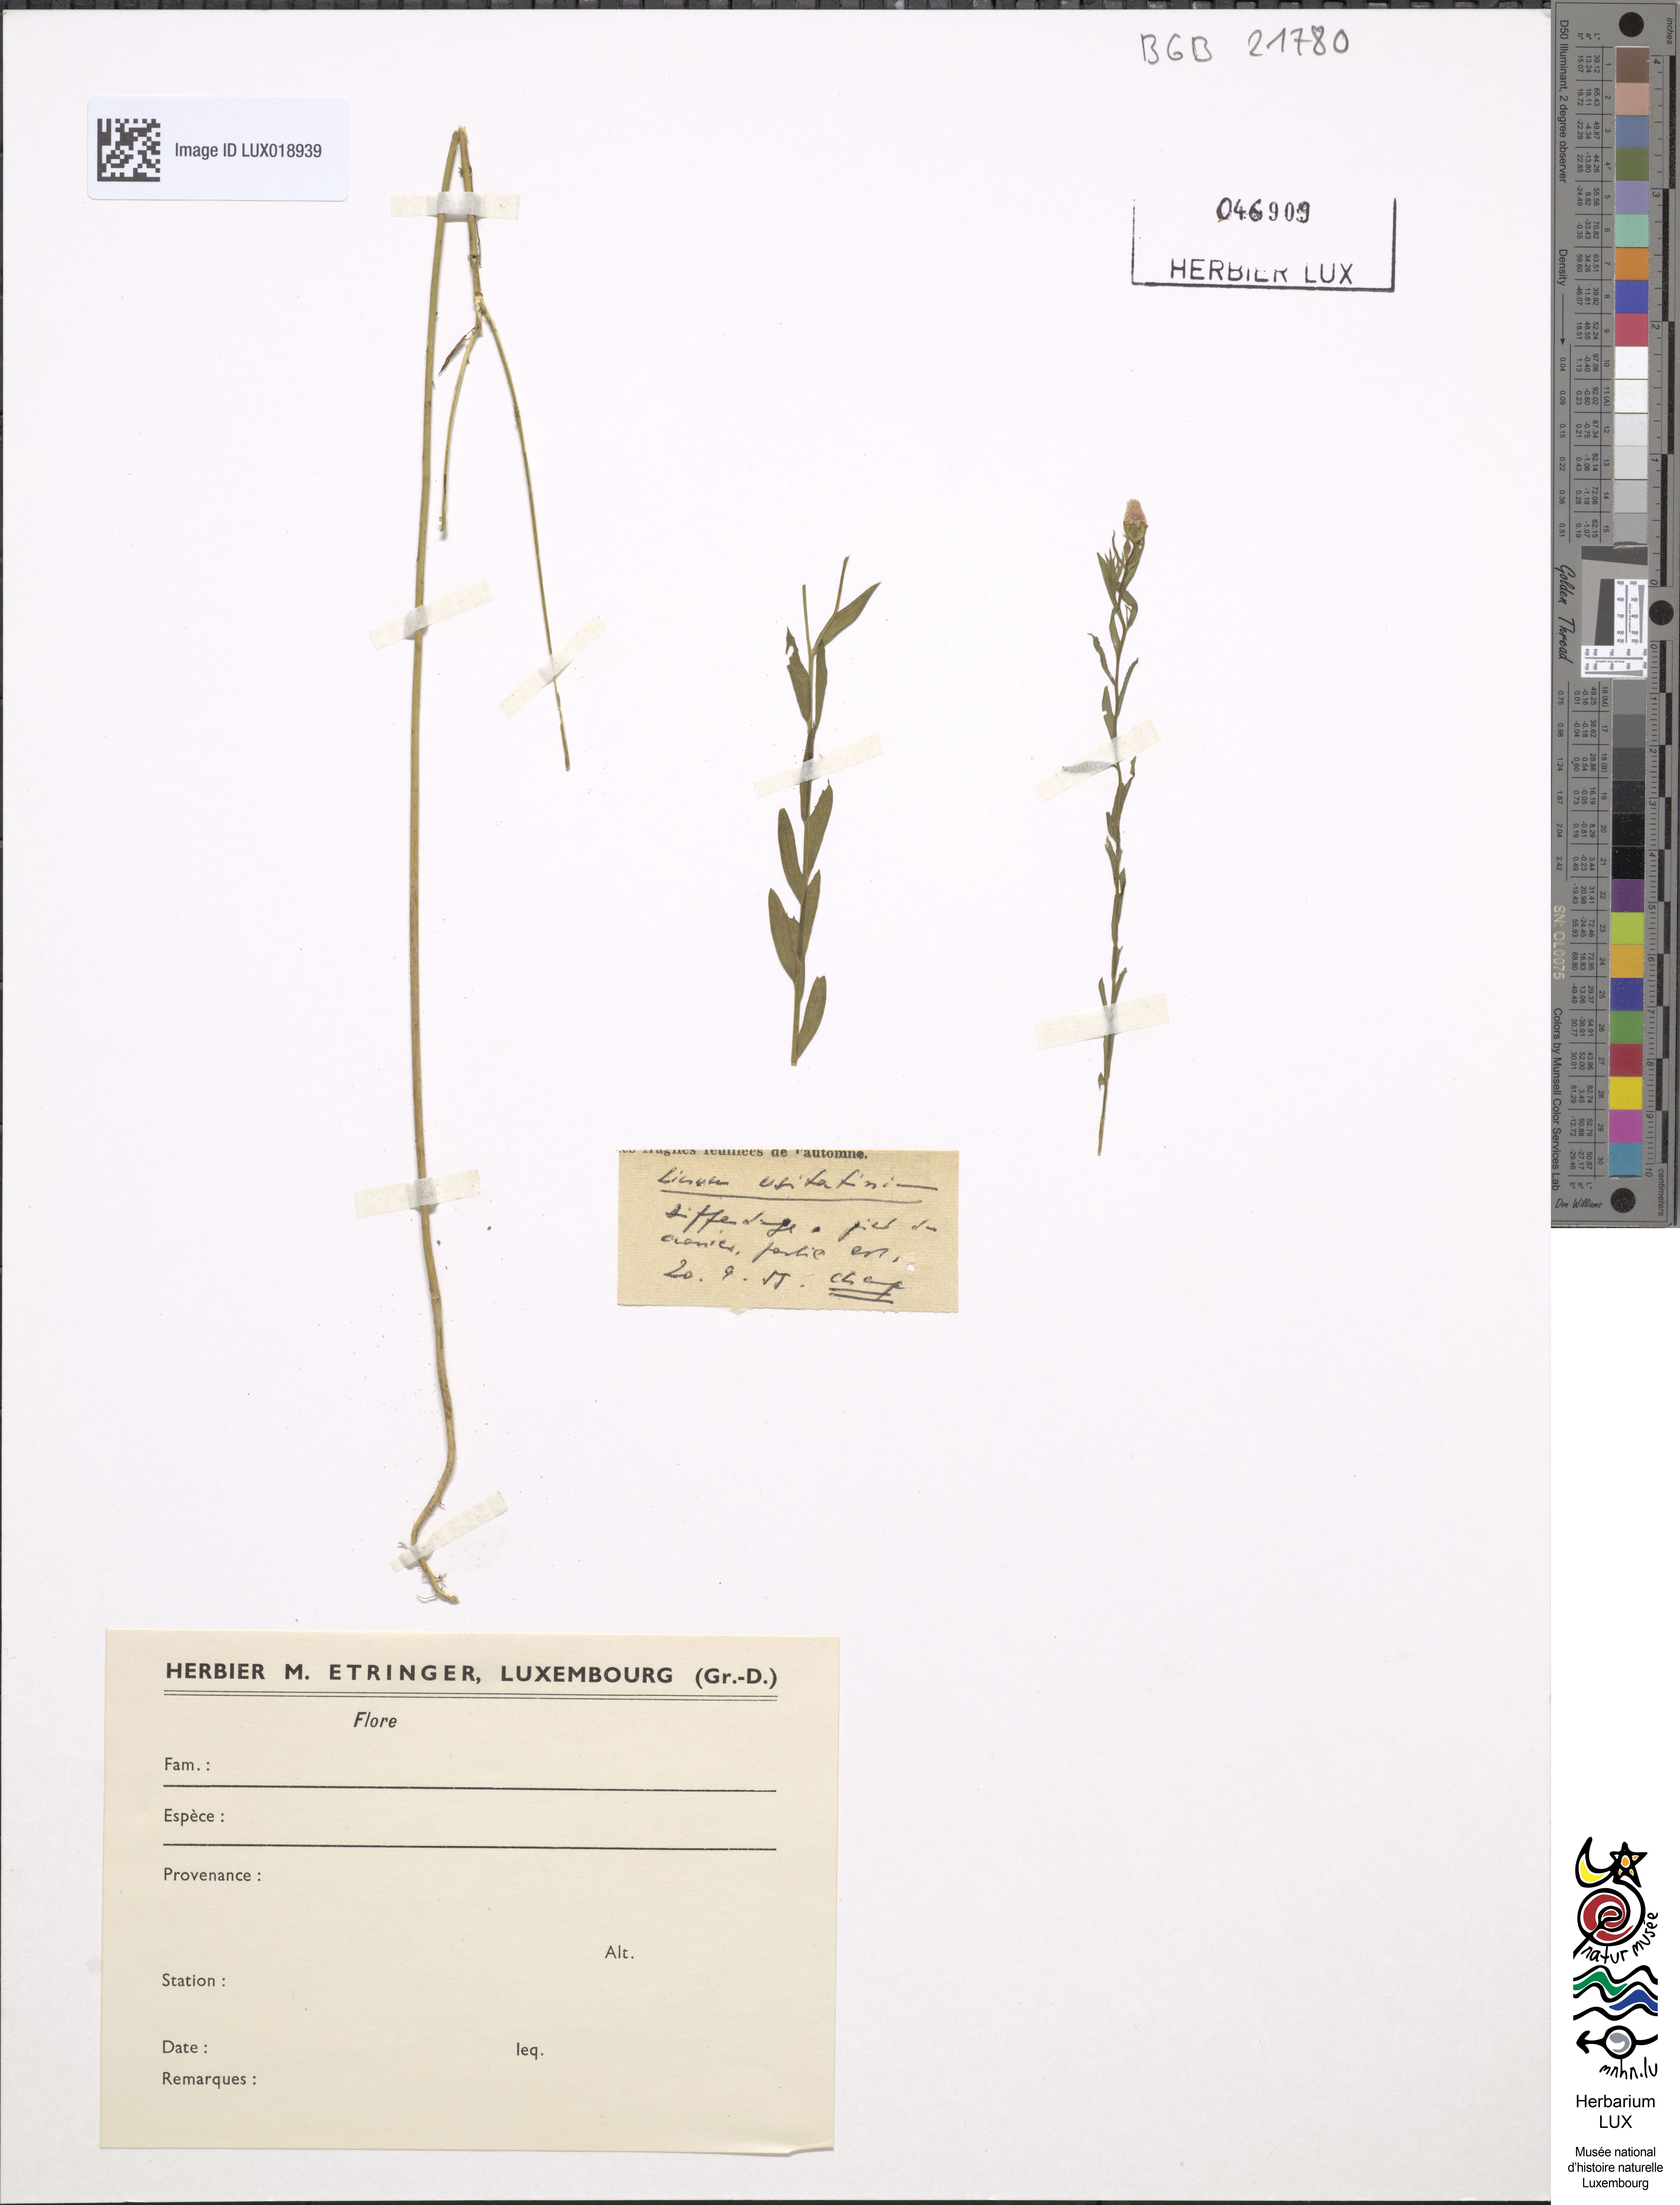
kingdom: Plantae
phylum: Tracheophyta
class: Magnoliopsida
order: Malpighiales
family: Linaceae
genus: Linum
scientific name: Linum usitatissimum
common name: Flax
